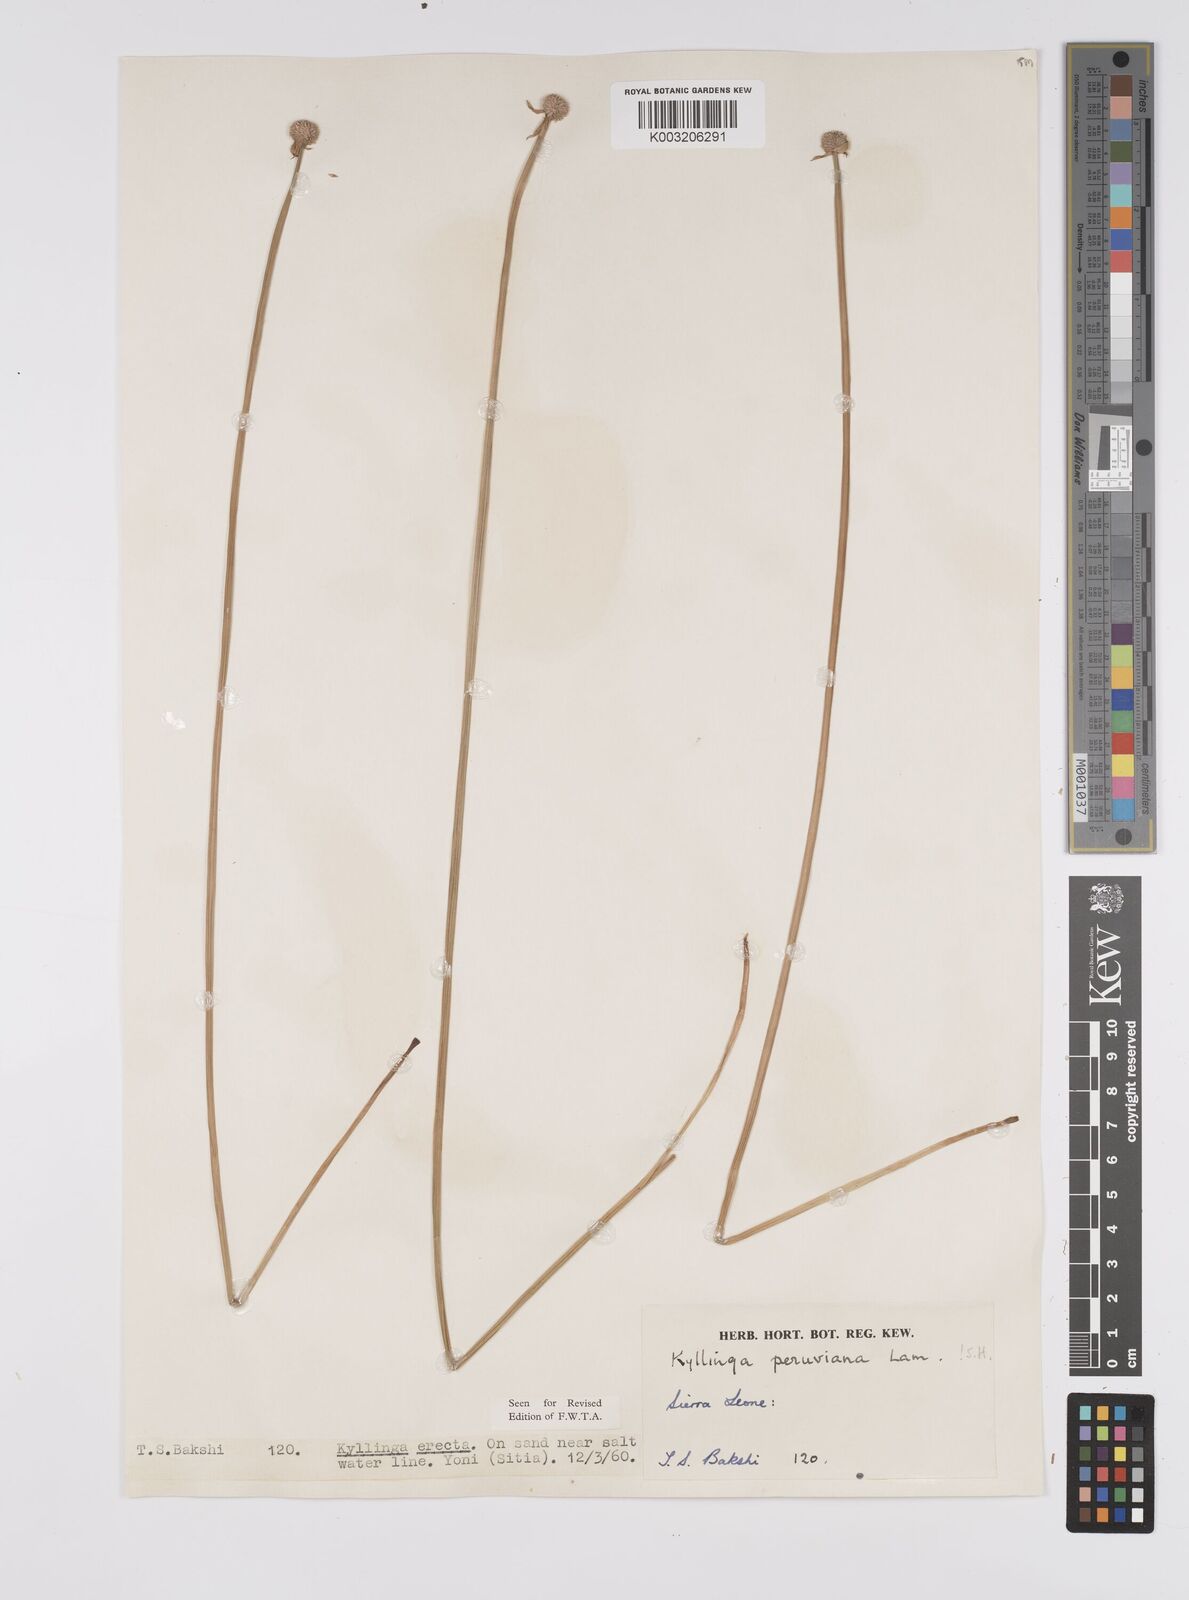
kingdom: Plantae
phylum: Tracheophyta
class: Liliopsida
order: Poales
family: Cyperaceae
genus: Cyperus
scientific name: Cyperus obtusatus
